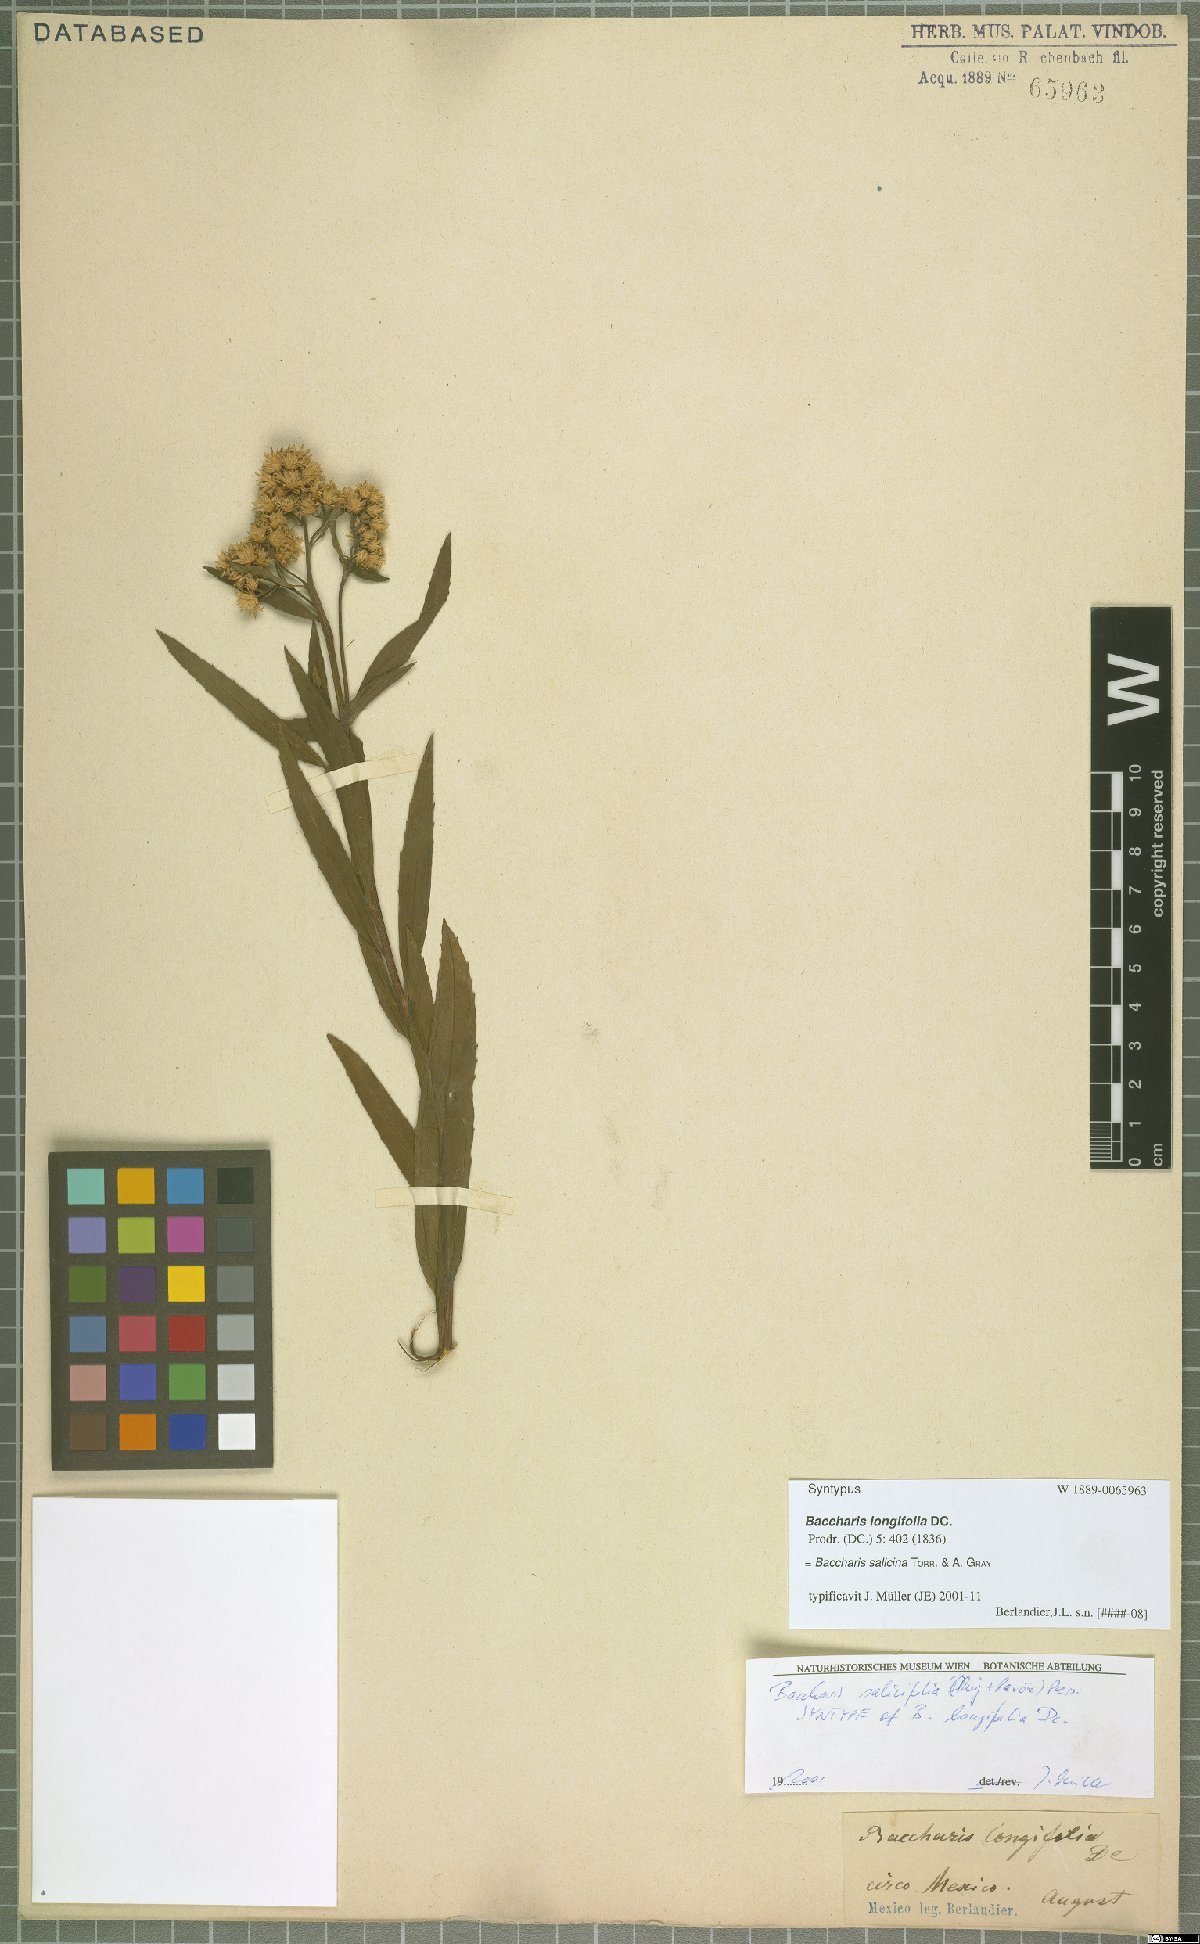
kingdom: Plantae
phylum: Tracheophyta
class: Magnoliopsida
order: Asterales
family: Asteraceae
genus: Baccharis
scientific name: Baccharis salicina
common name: Willow baccharis
